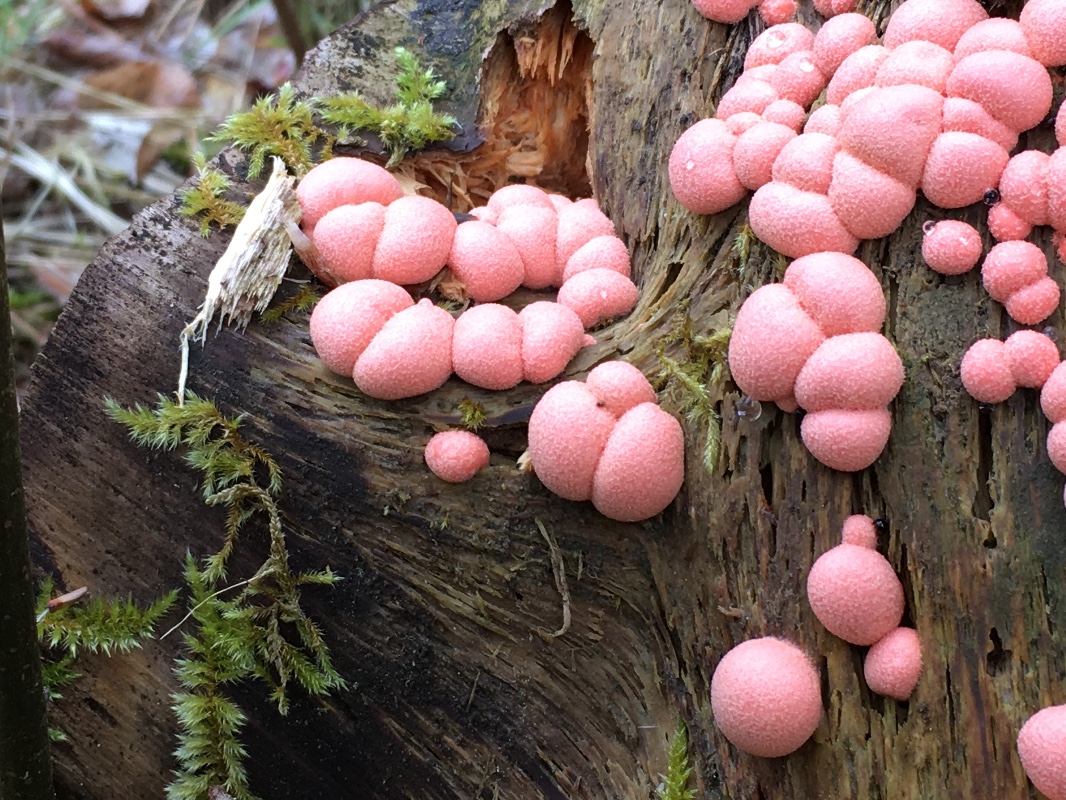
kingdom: Protozoa
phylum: Mycetozoa
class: Myxomycetes
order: Cribrariales
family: Tubiferaceae
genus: Lycogala
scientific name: Lycogala epidendrum
